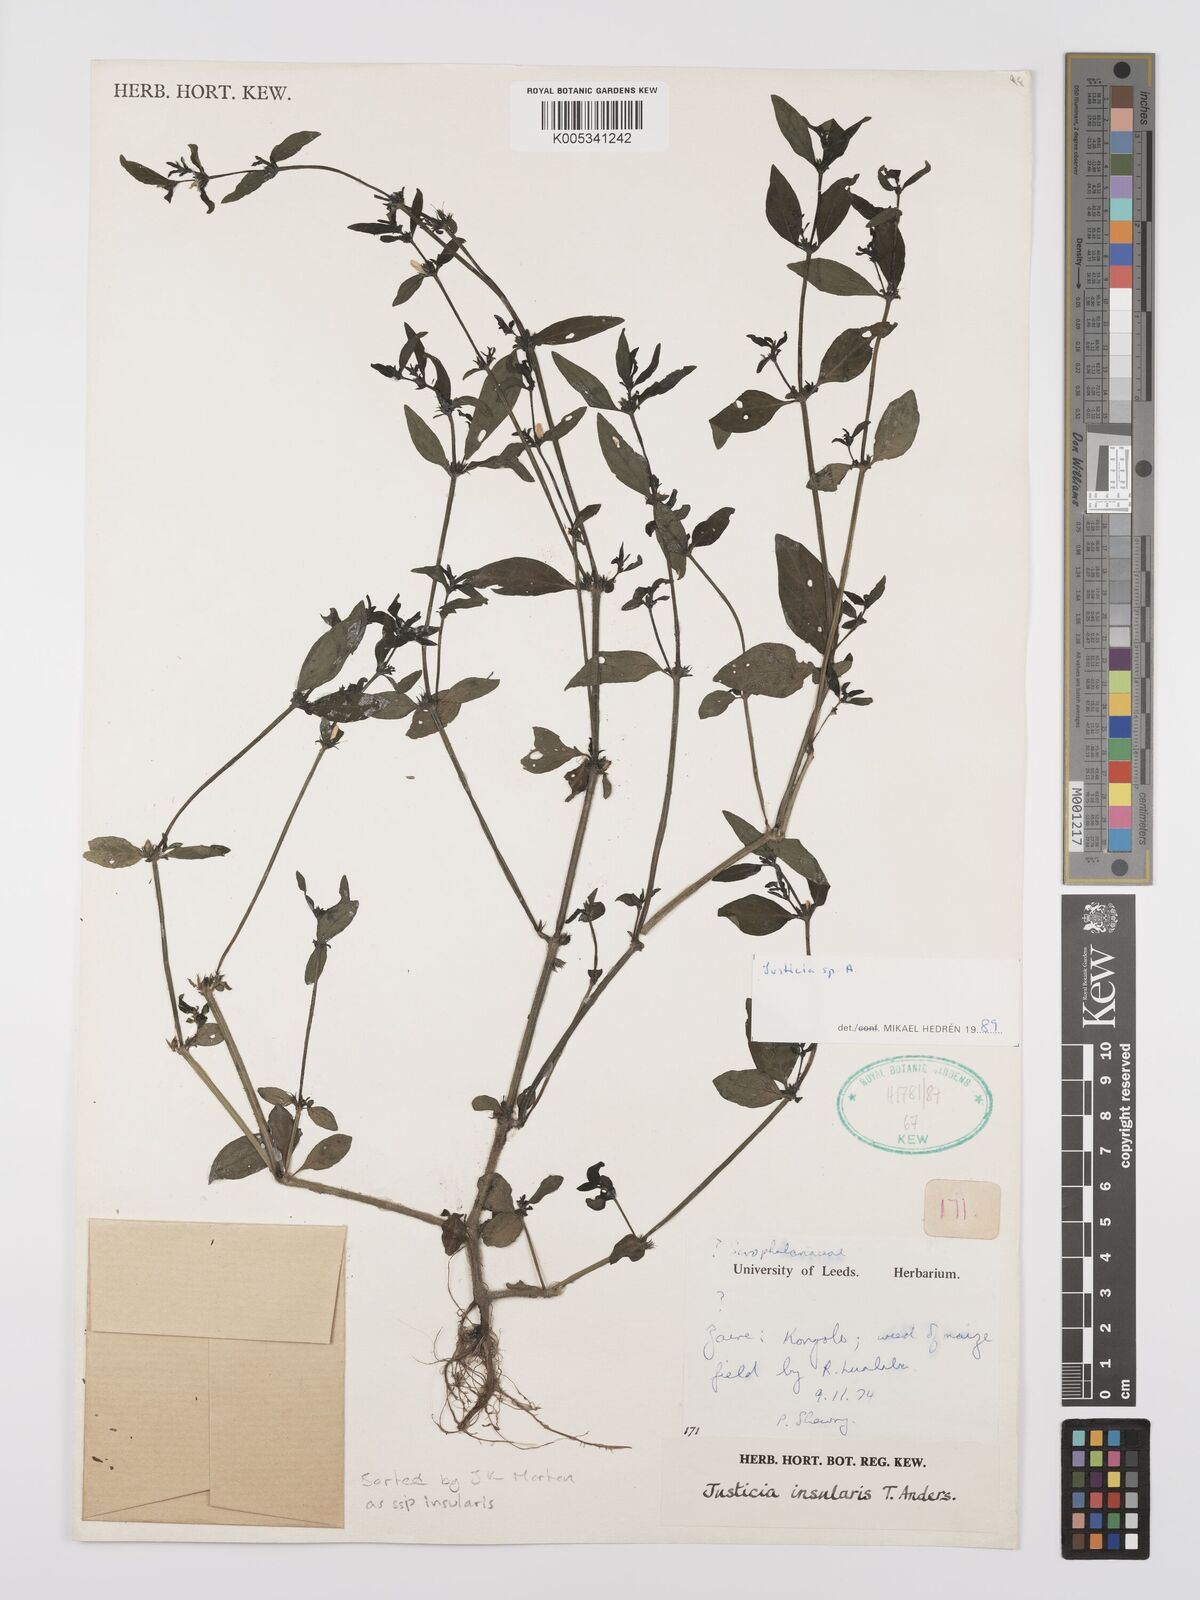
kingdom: Plantae
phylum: Tracheophyta
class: Magnoliopsida
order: Lamiales
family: Acanthaceae
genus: Justicia
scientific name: Justicia boaleri
